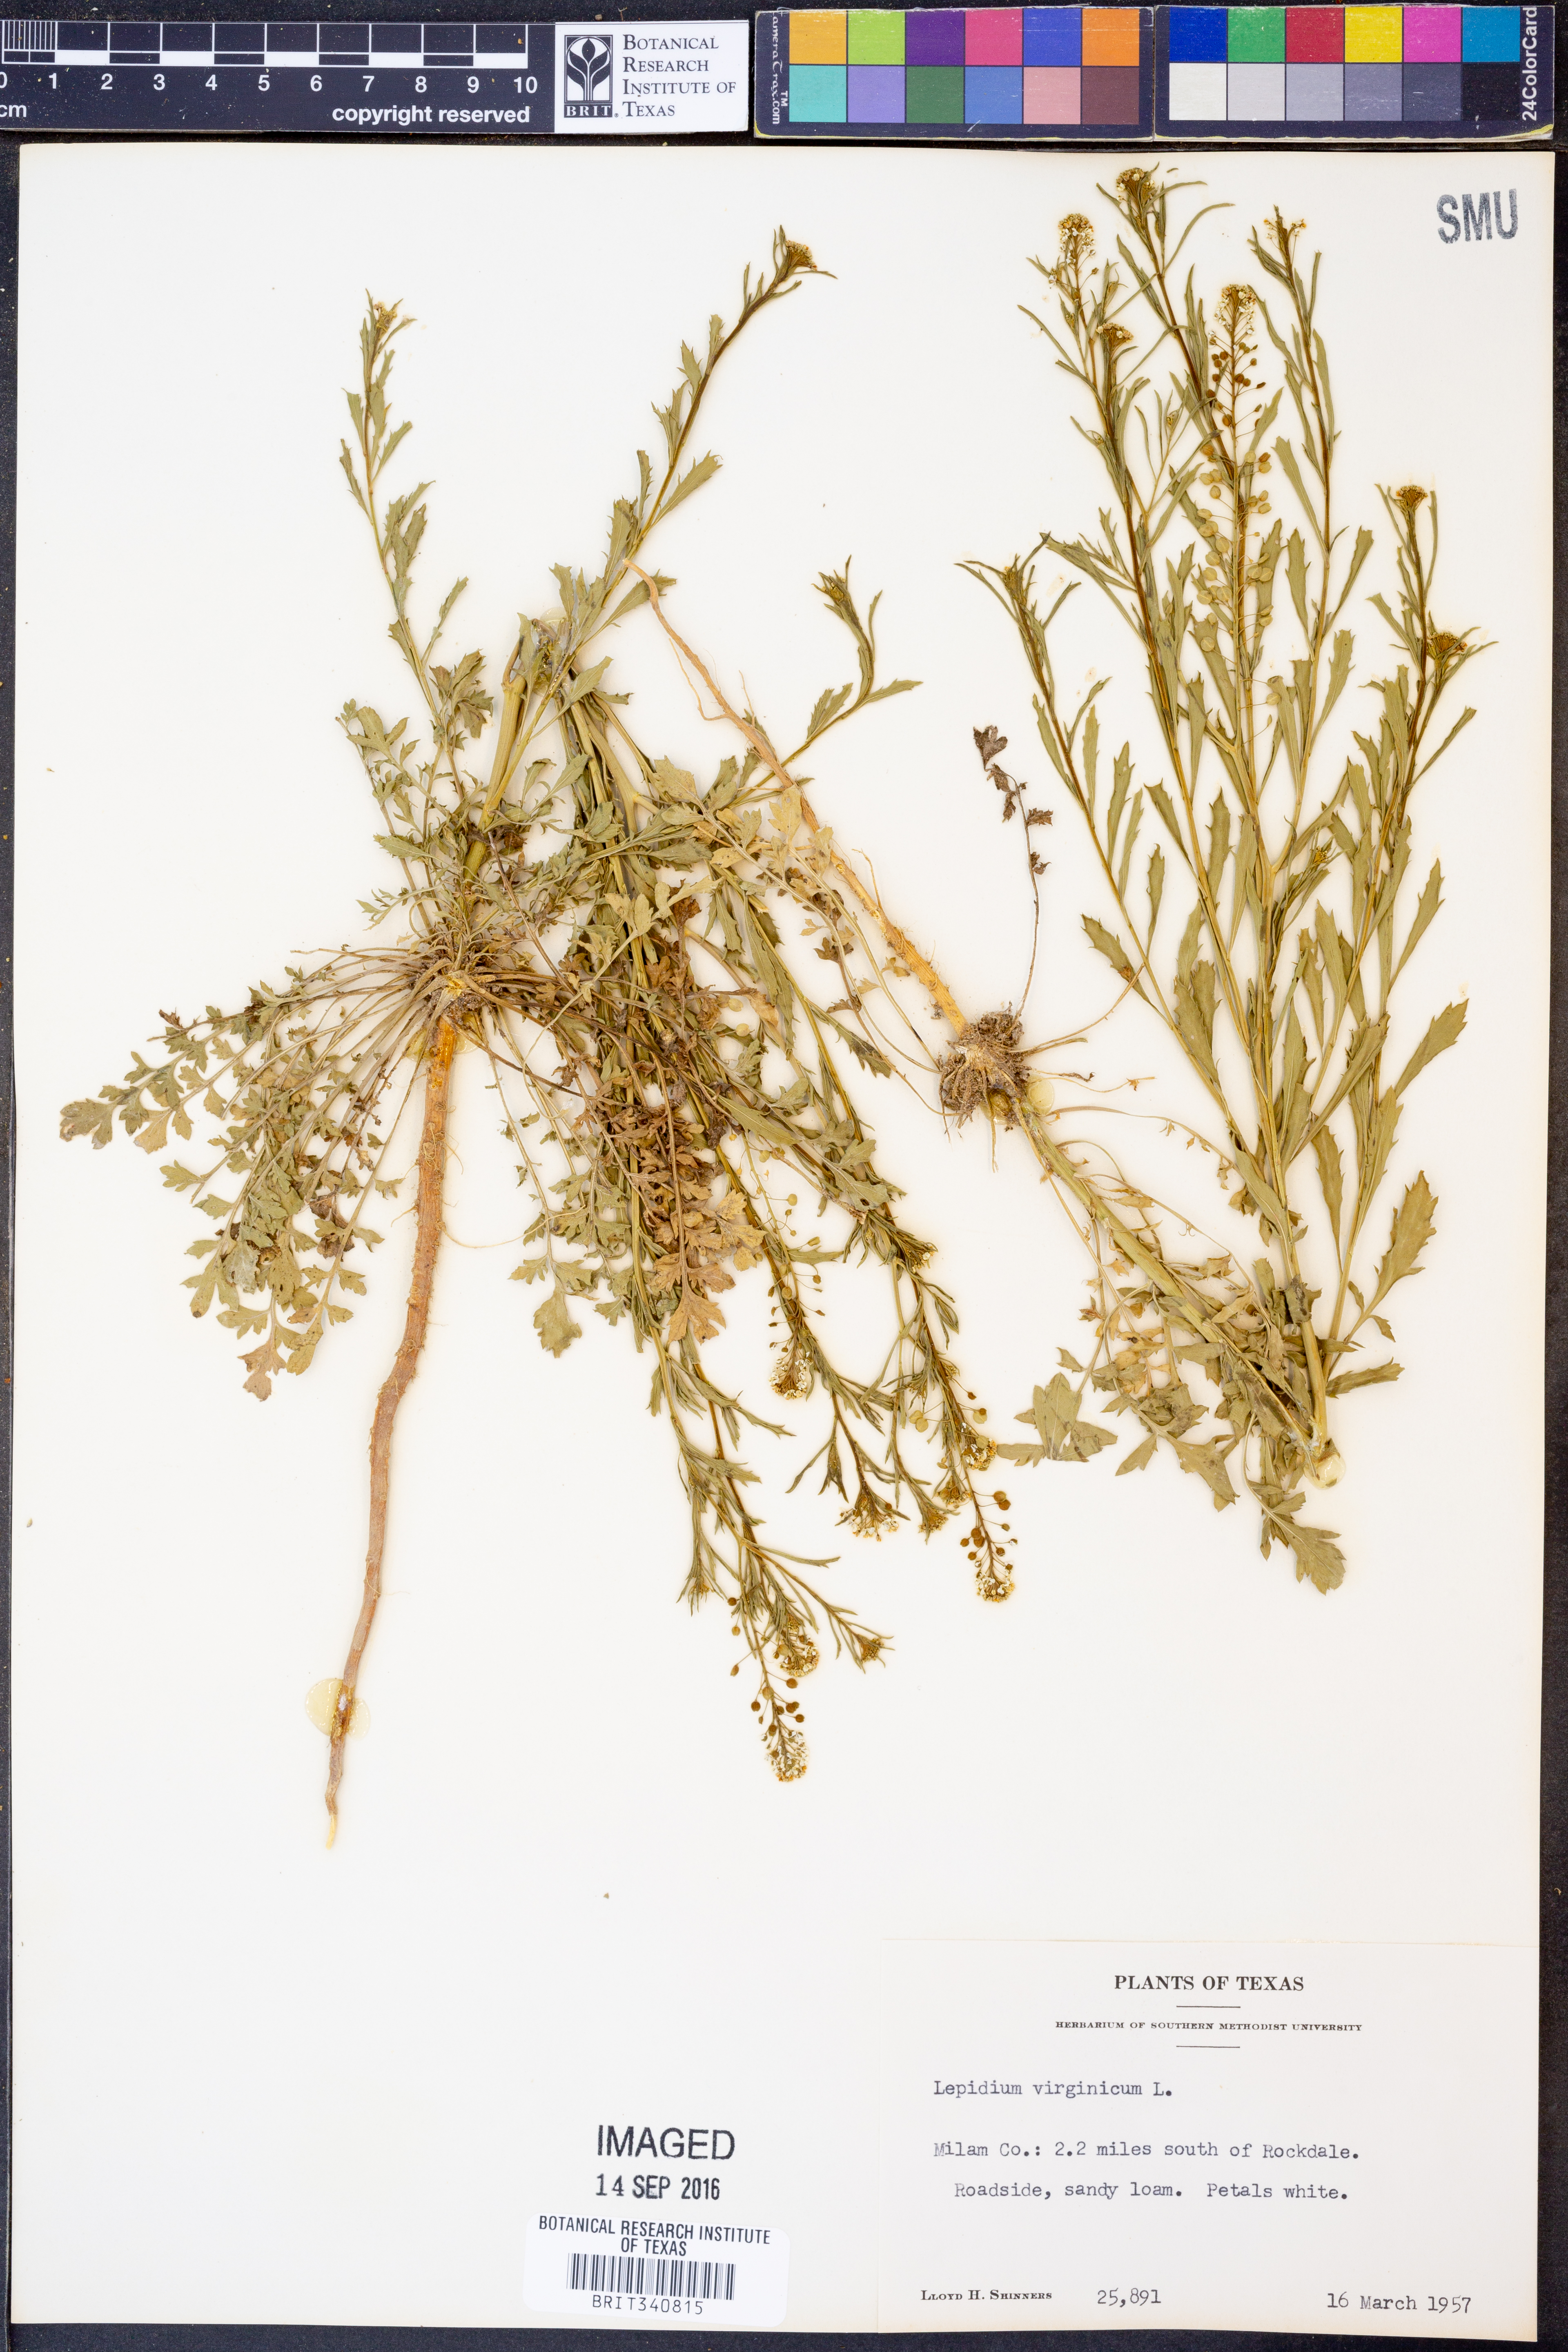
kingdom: Plantae
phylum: Tracheophyta
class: Magnoliopsida
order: Brassicales
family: Brassicaceae
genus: Lepidium
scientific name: Lepidium virginicum
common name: Least pepperwort
